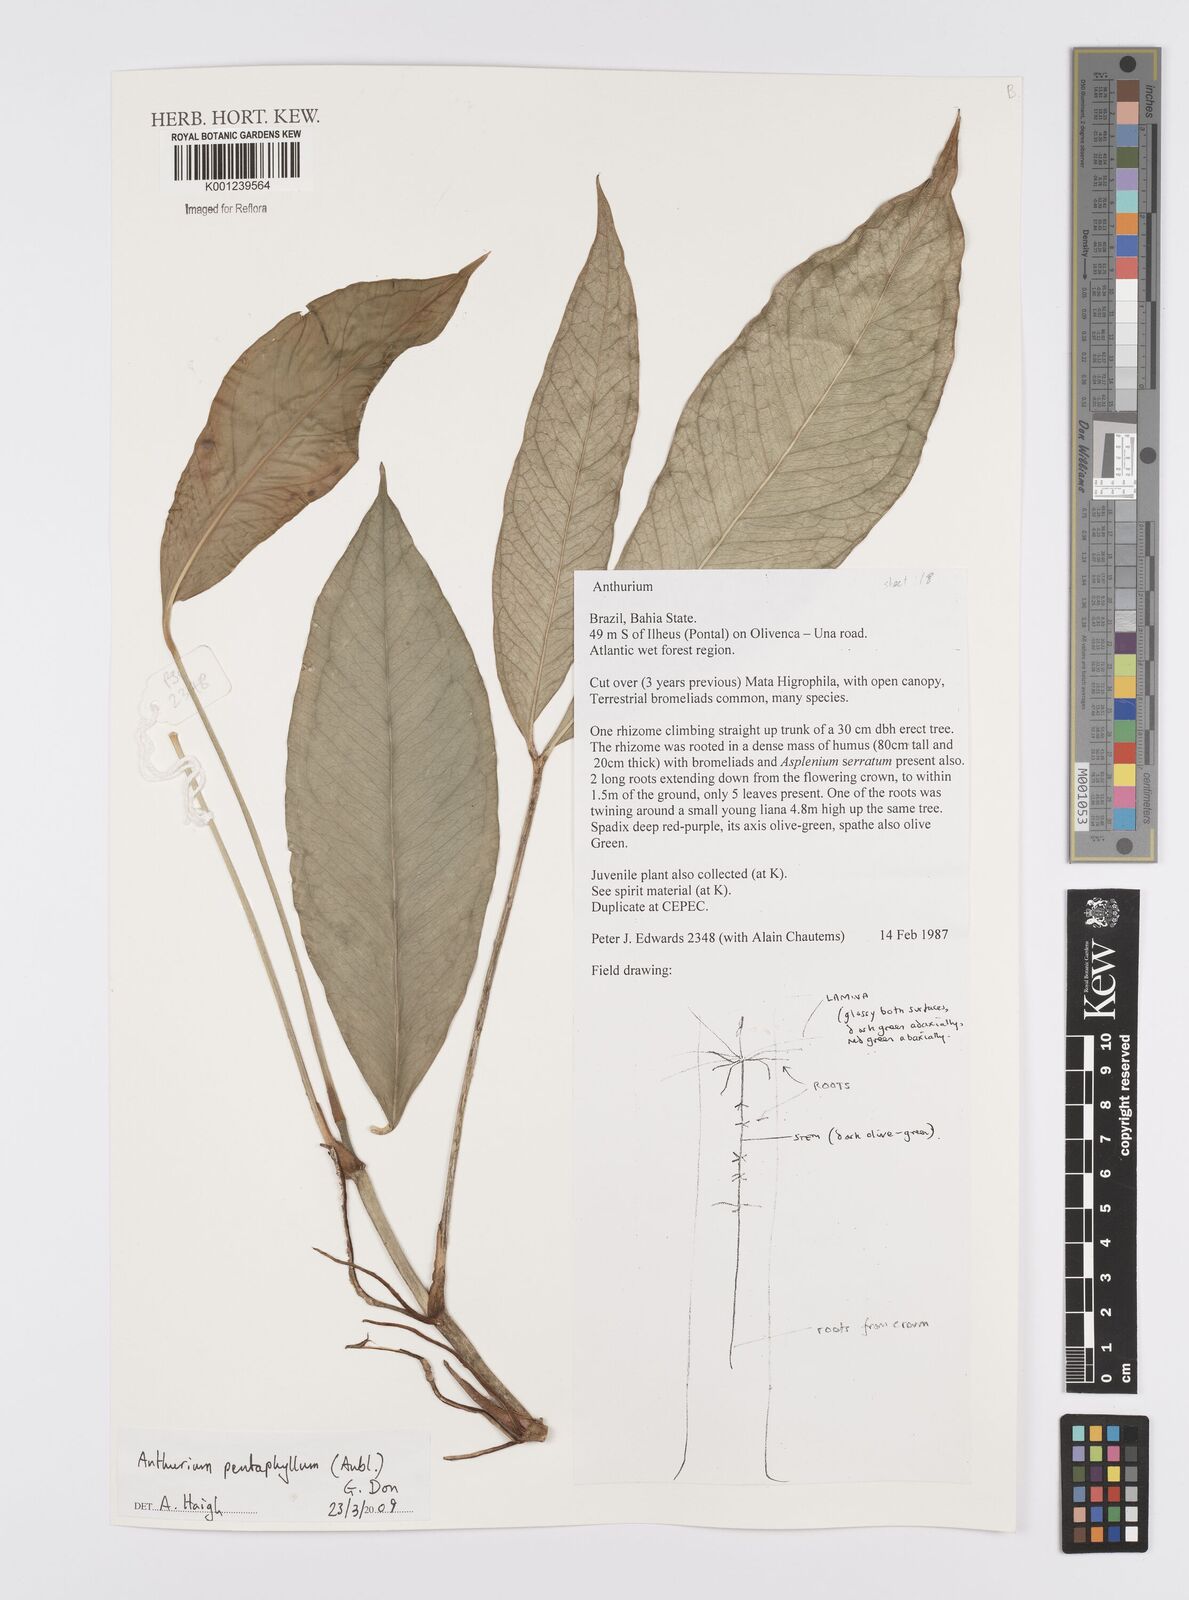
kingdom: Plantae
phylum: Tracheophyta
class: Liliopsida
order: Alismatales
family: Araceae
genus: Anthurium
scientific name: Anthurium pentaphyllum
